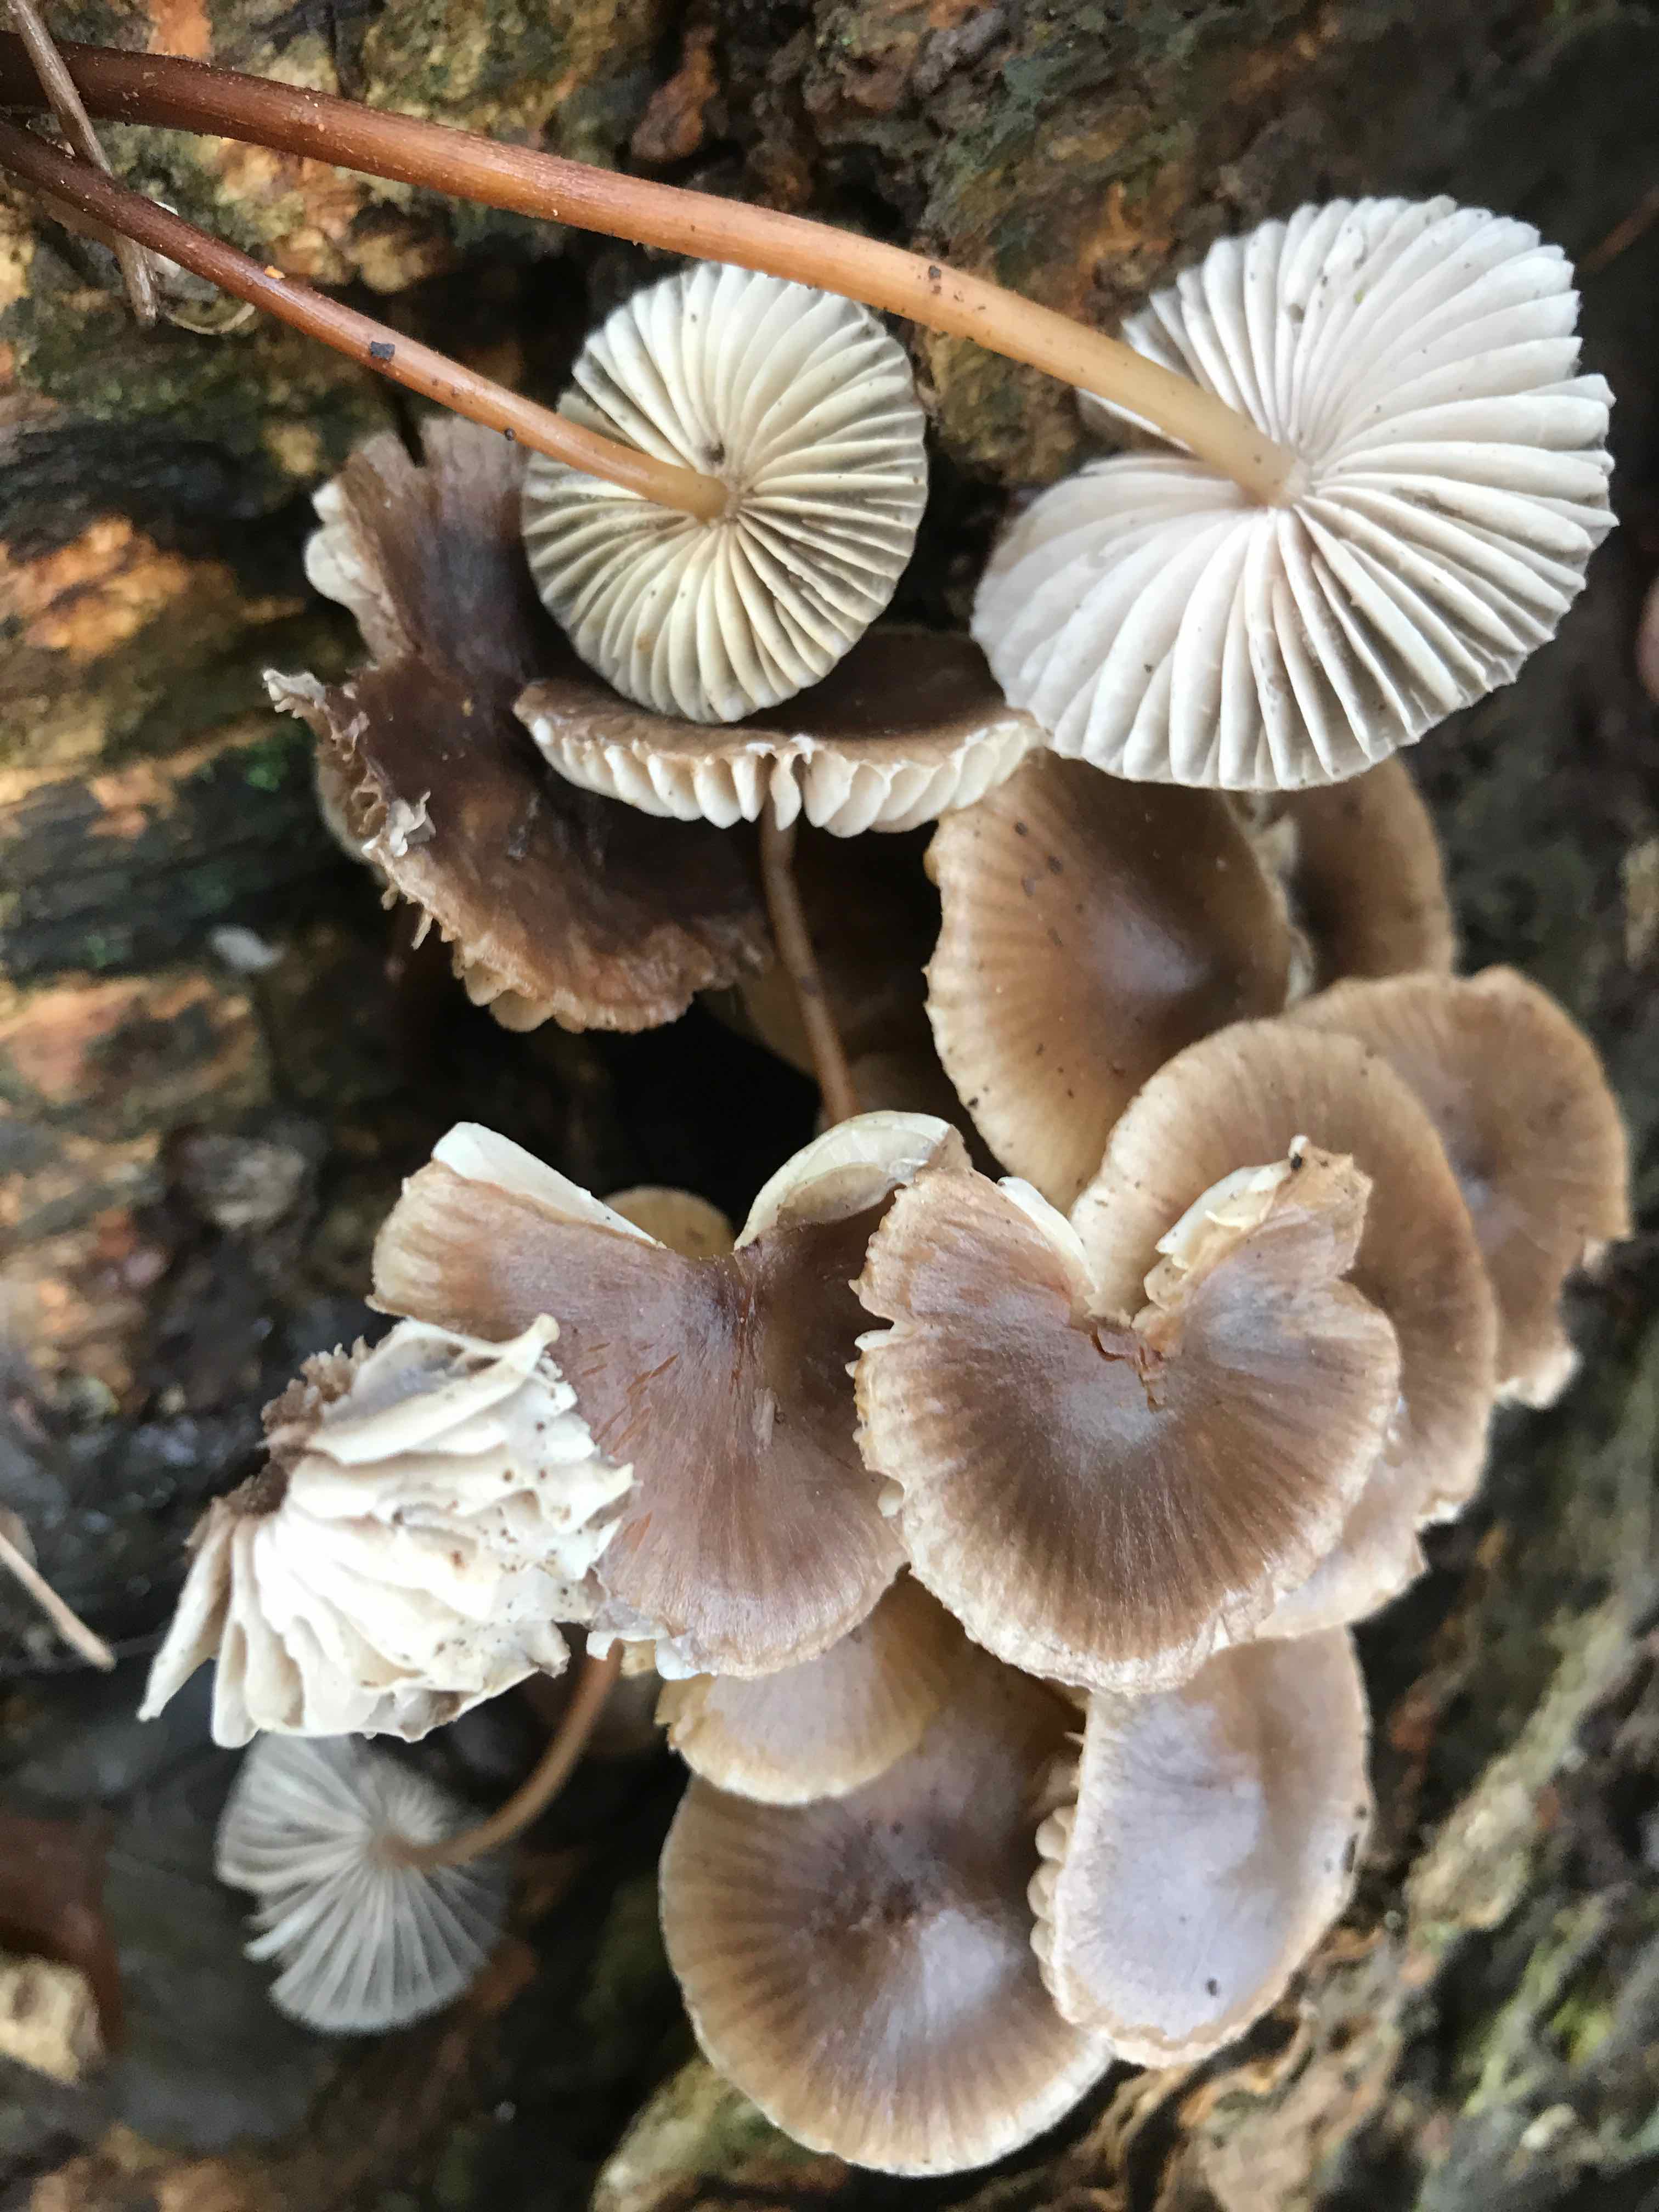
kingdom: Fungi
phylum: Basidiomycota
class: Agaricomycetes
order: Agaricales
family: Mycenaceae
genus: Mycena
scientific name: Mycena
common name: huesvamp
